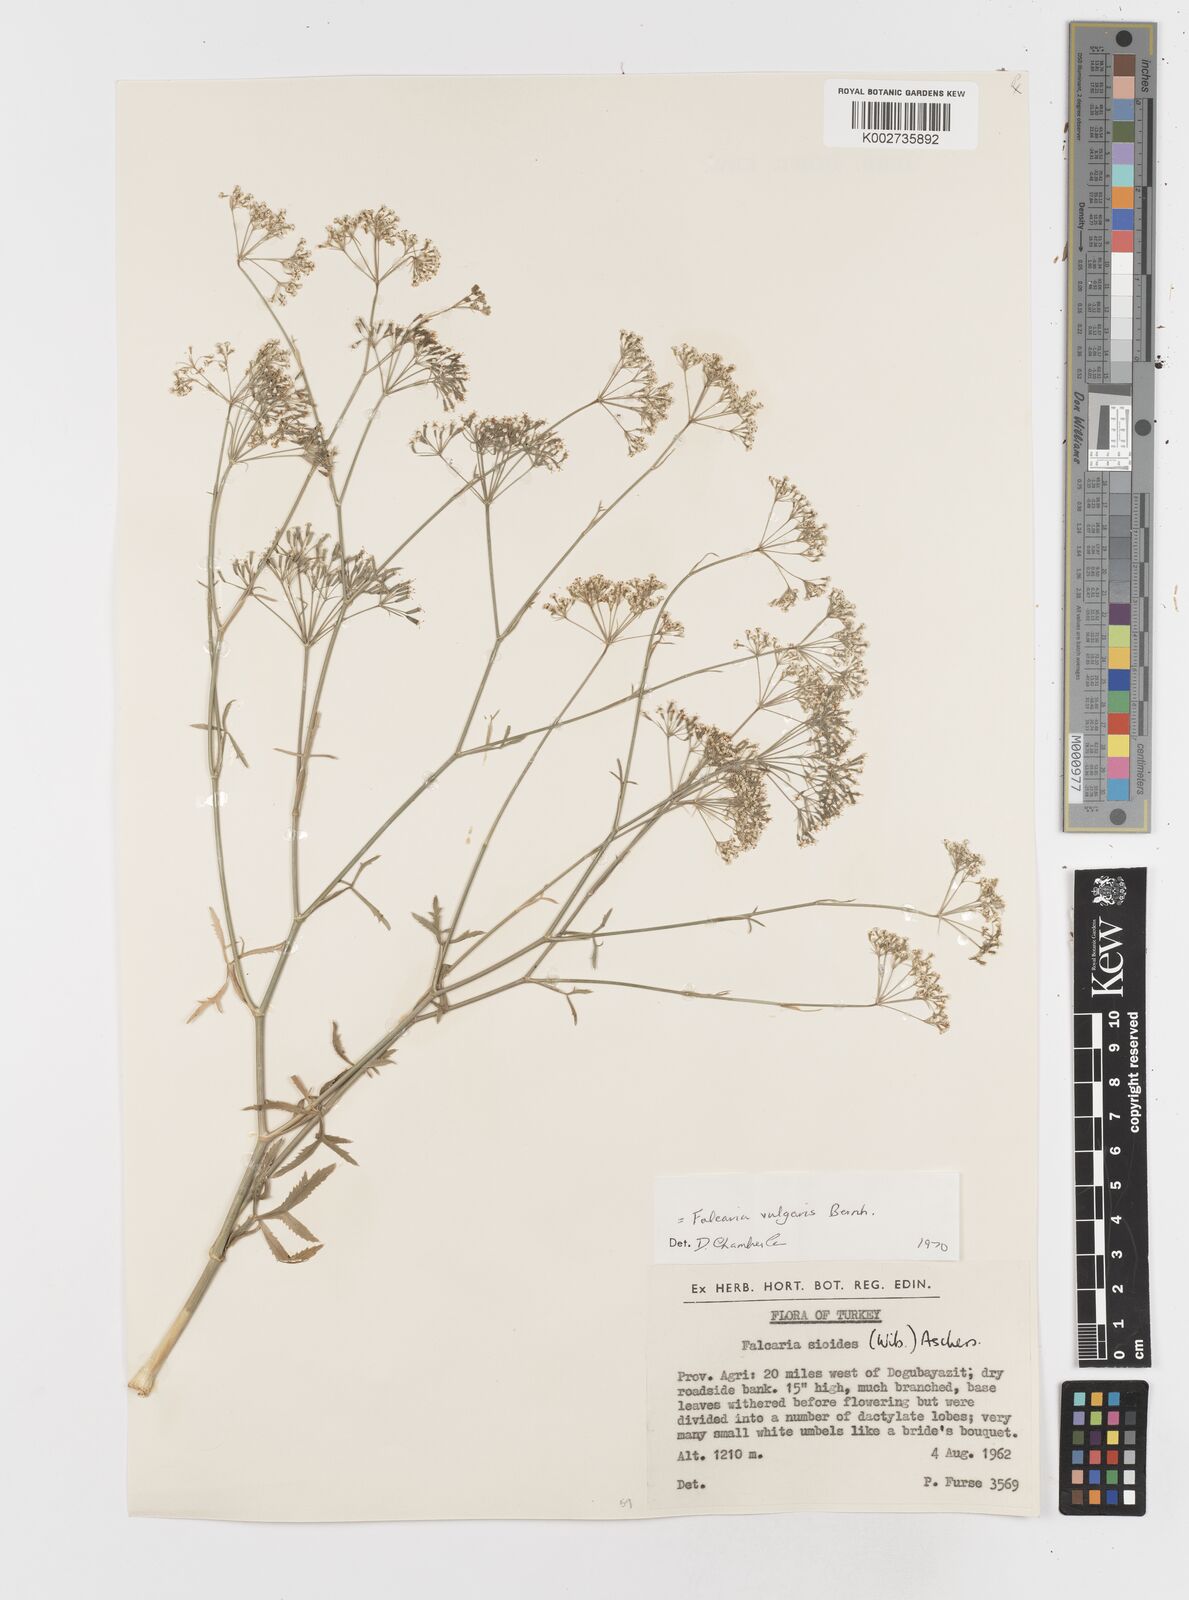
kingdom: Plantae
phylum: Tracheophyta
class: Magnoliopsida
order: Apiales
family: Apiaceae
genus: Falcaria
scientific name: Falcaria vulgaris
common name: Longleaf
